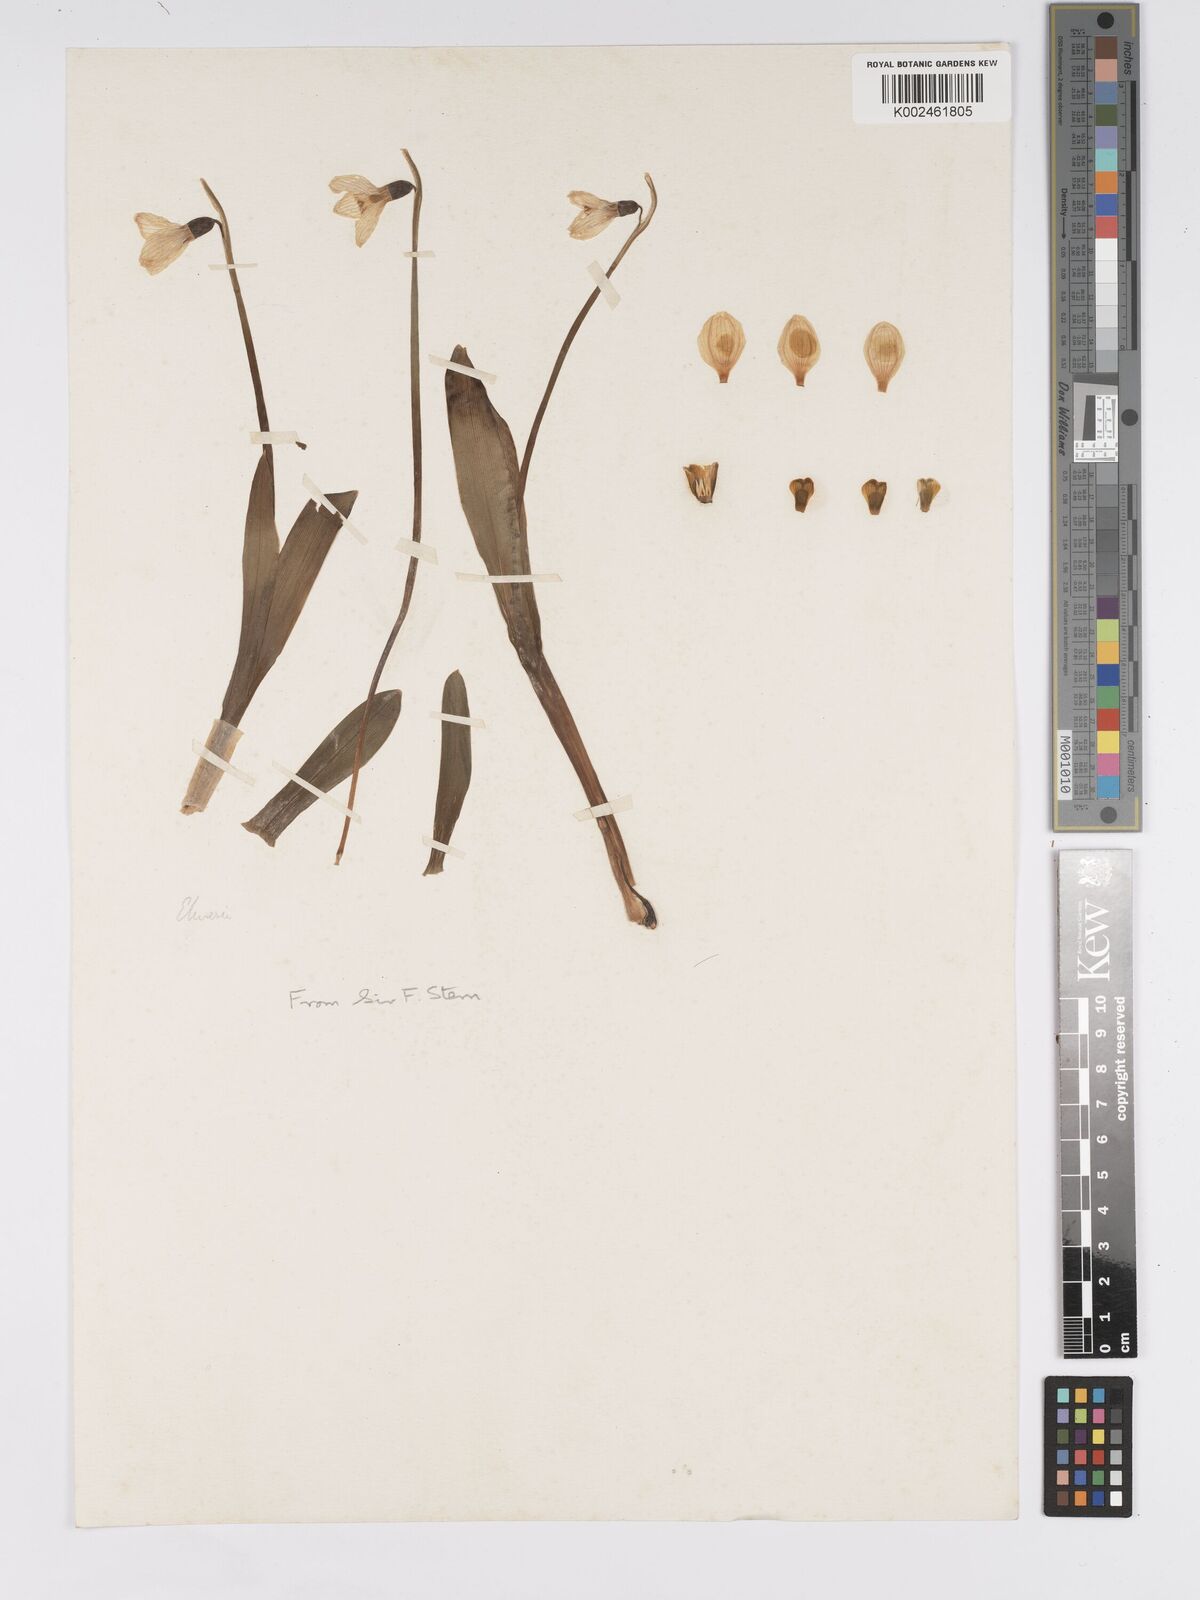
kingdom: Plantae
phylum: Tracheophyta
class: Liliopsida
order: Asparagales
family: Amaryllidaceae
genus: Galanthus
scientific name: Galanthus
